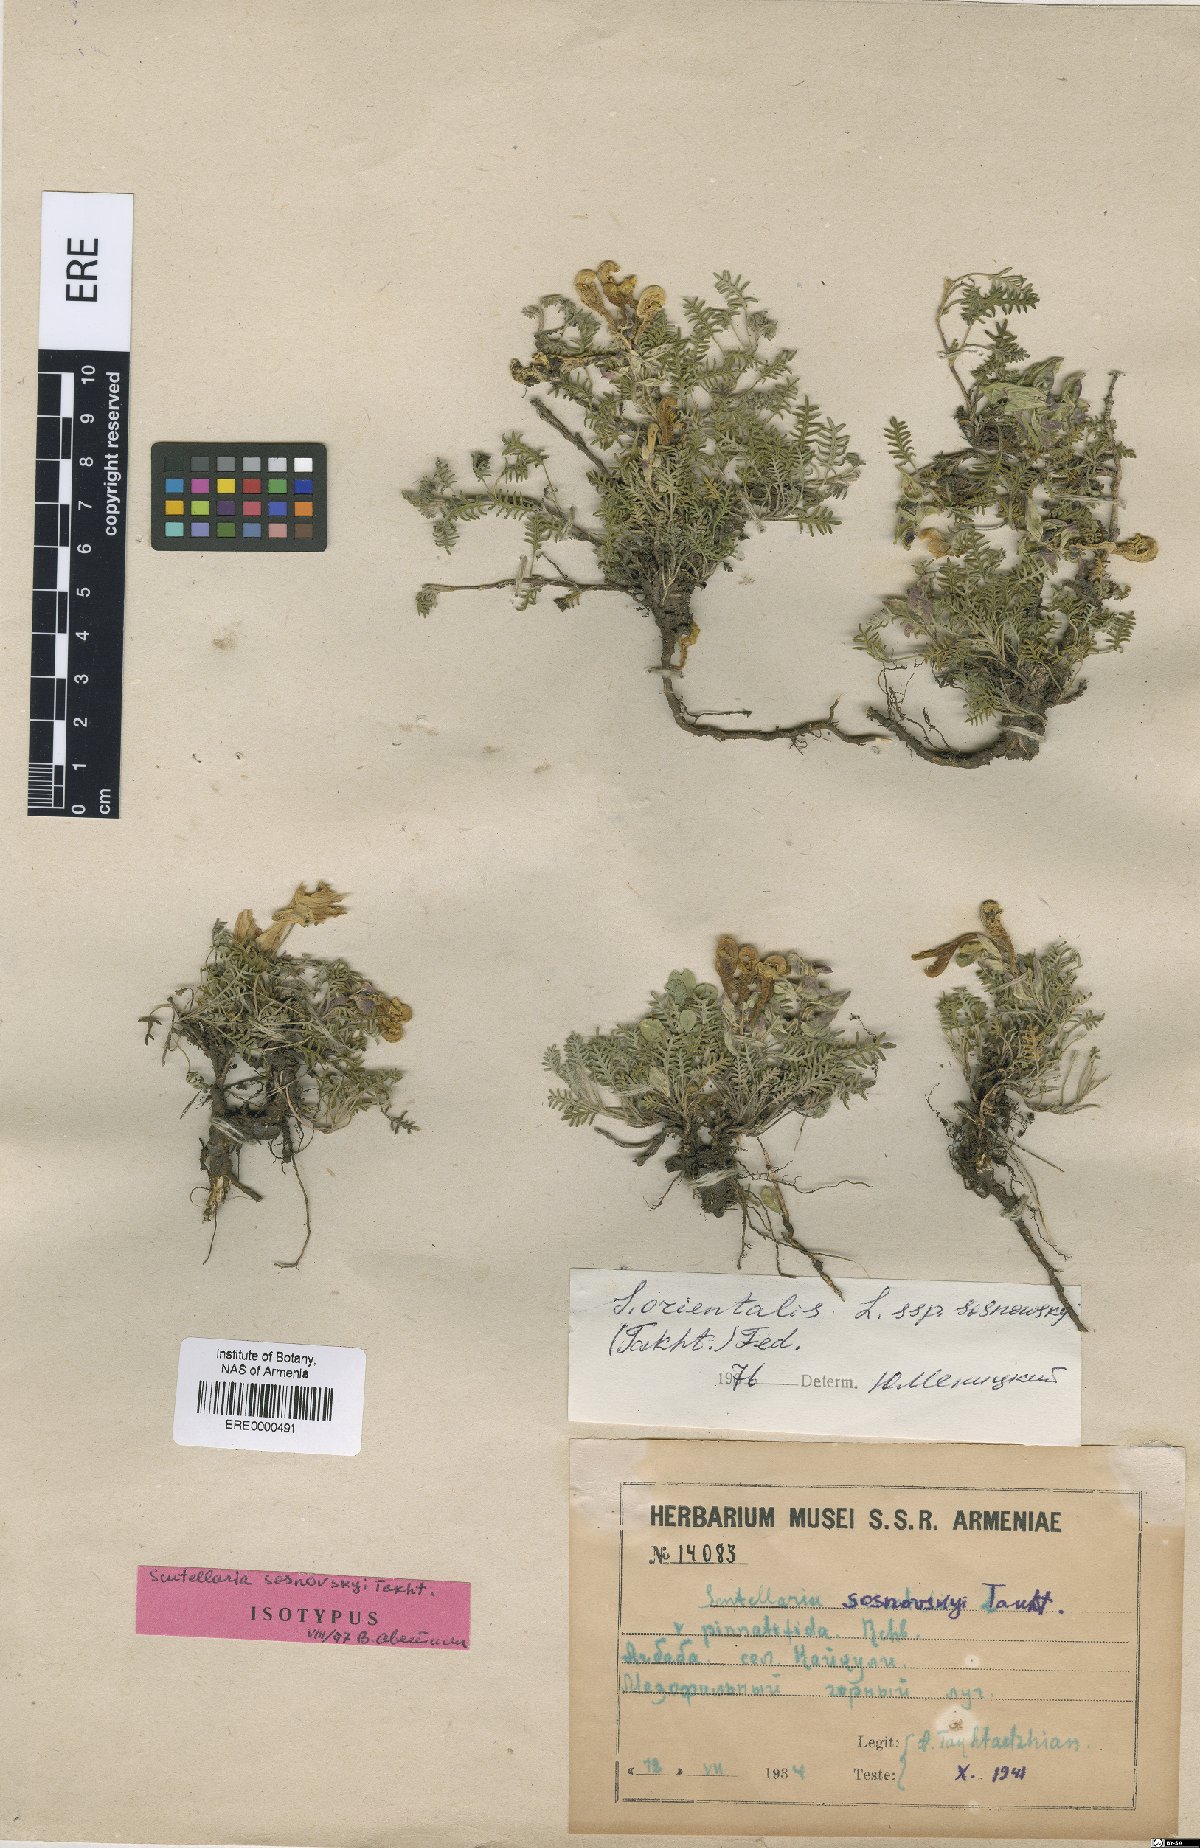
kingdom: Plantae
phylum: Tracheophyta
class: Magnoliopsida
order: Lamiales
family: Lamiaceae
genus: Scutellaria
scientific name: Scutellaria sosnowskyi
